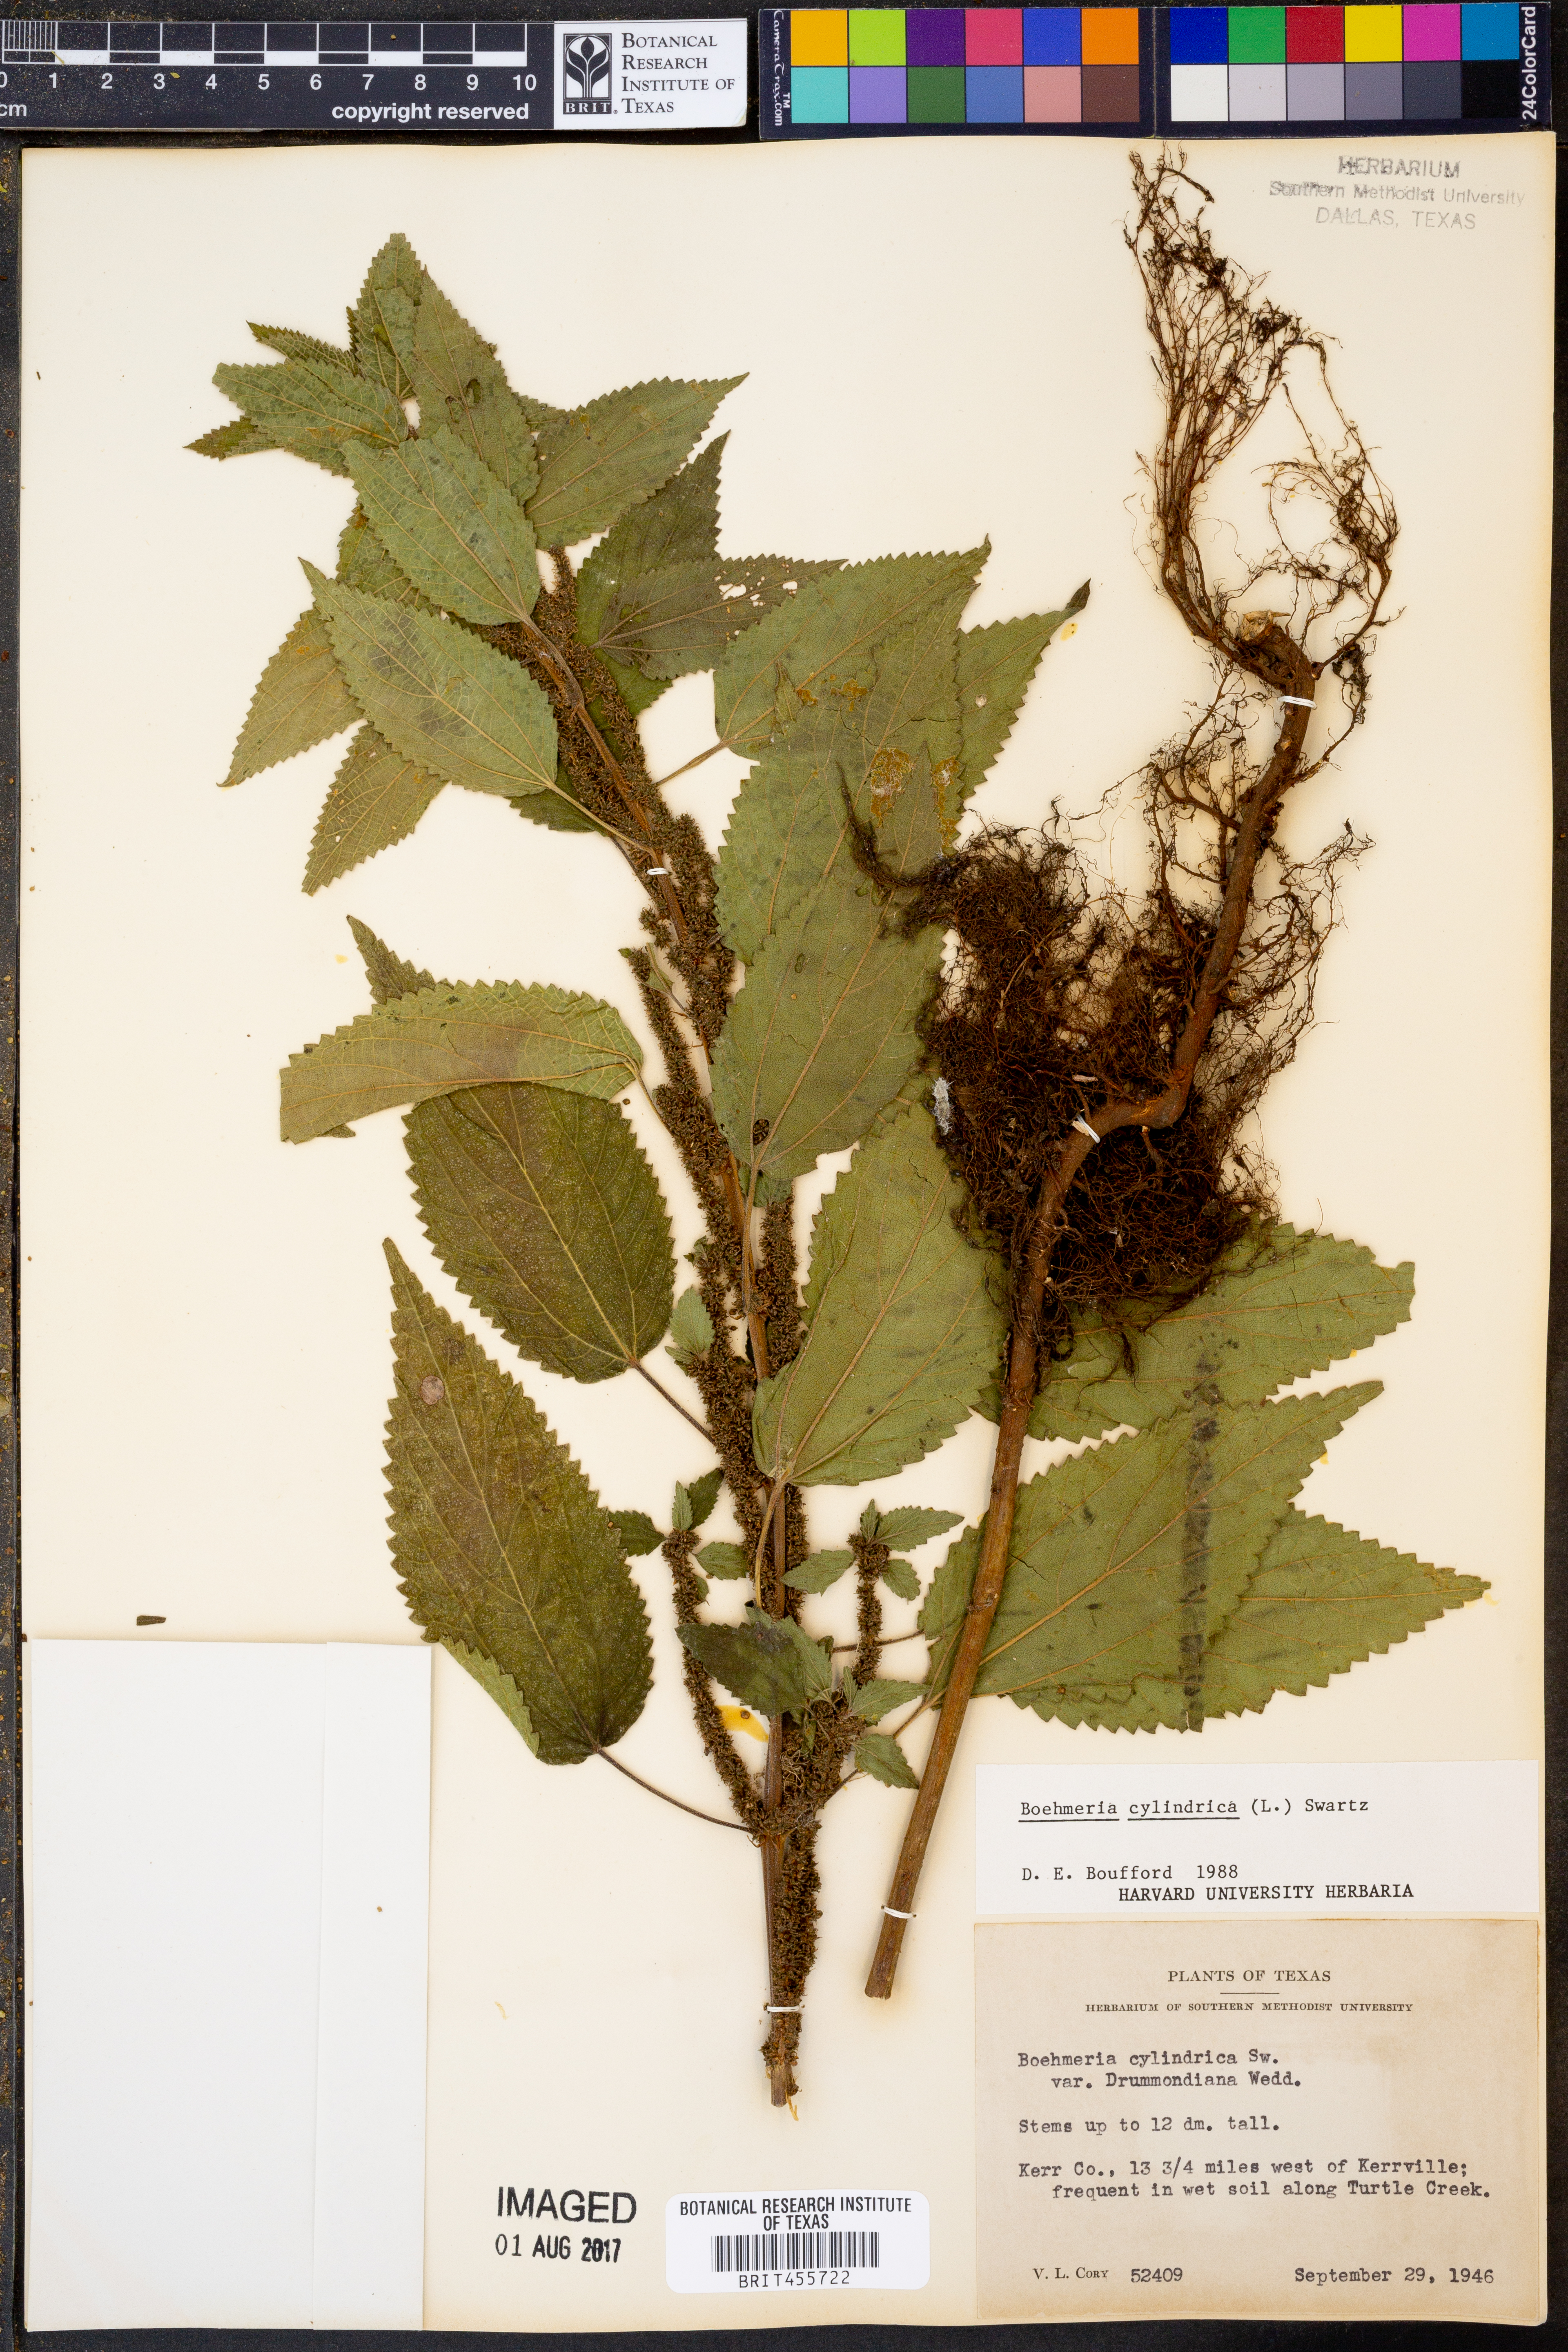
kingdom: Plantae
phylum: Tracheophyta
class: Magnoliopsida
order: Rosales
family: Urticaceae
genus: Boehmeria
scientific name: Boehmeria cylindrica
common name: Bog-hemp
